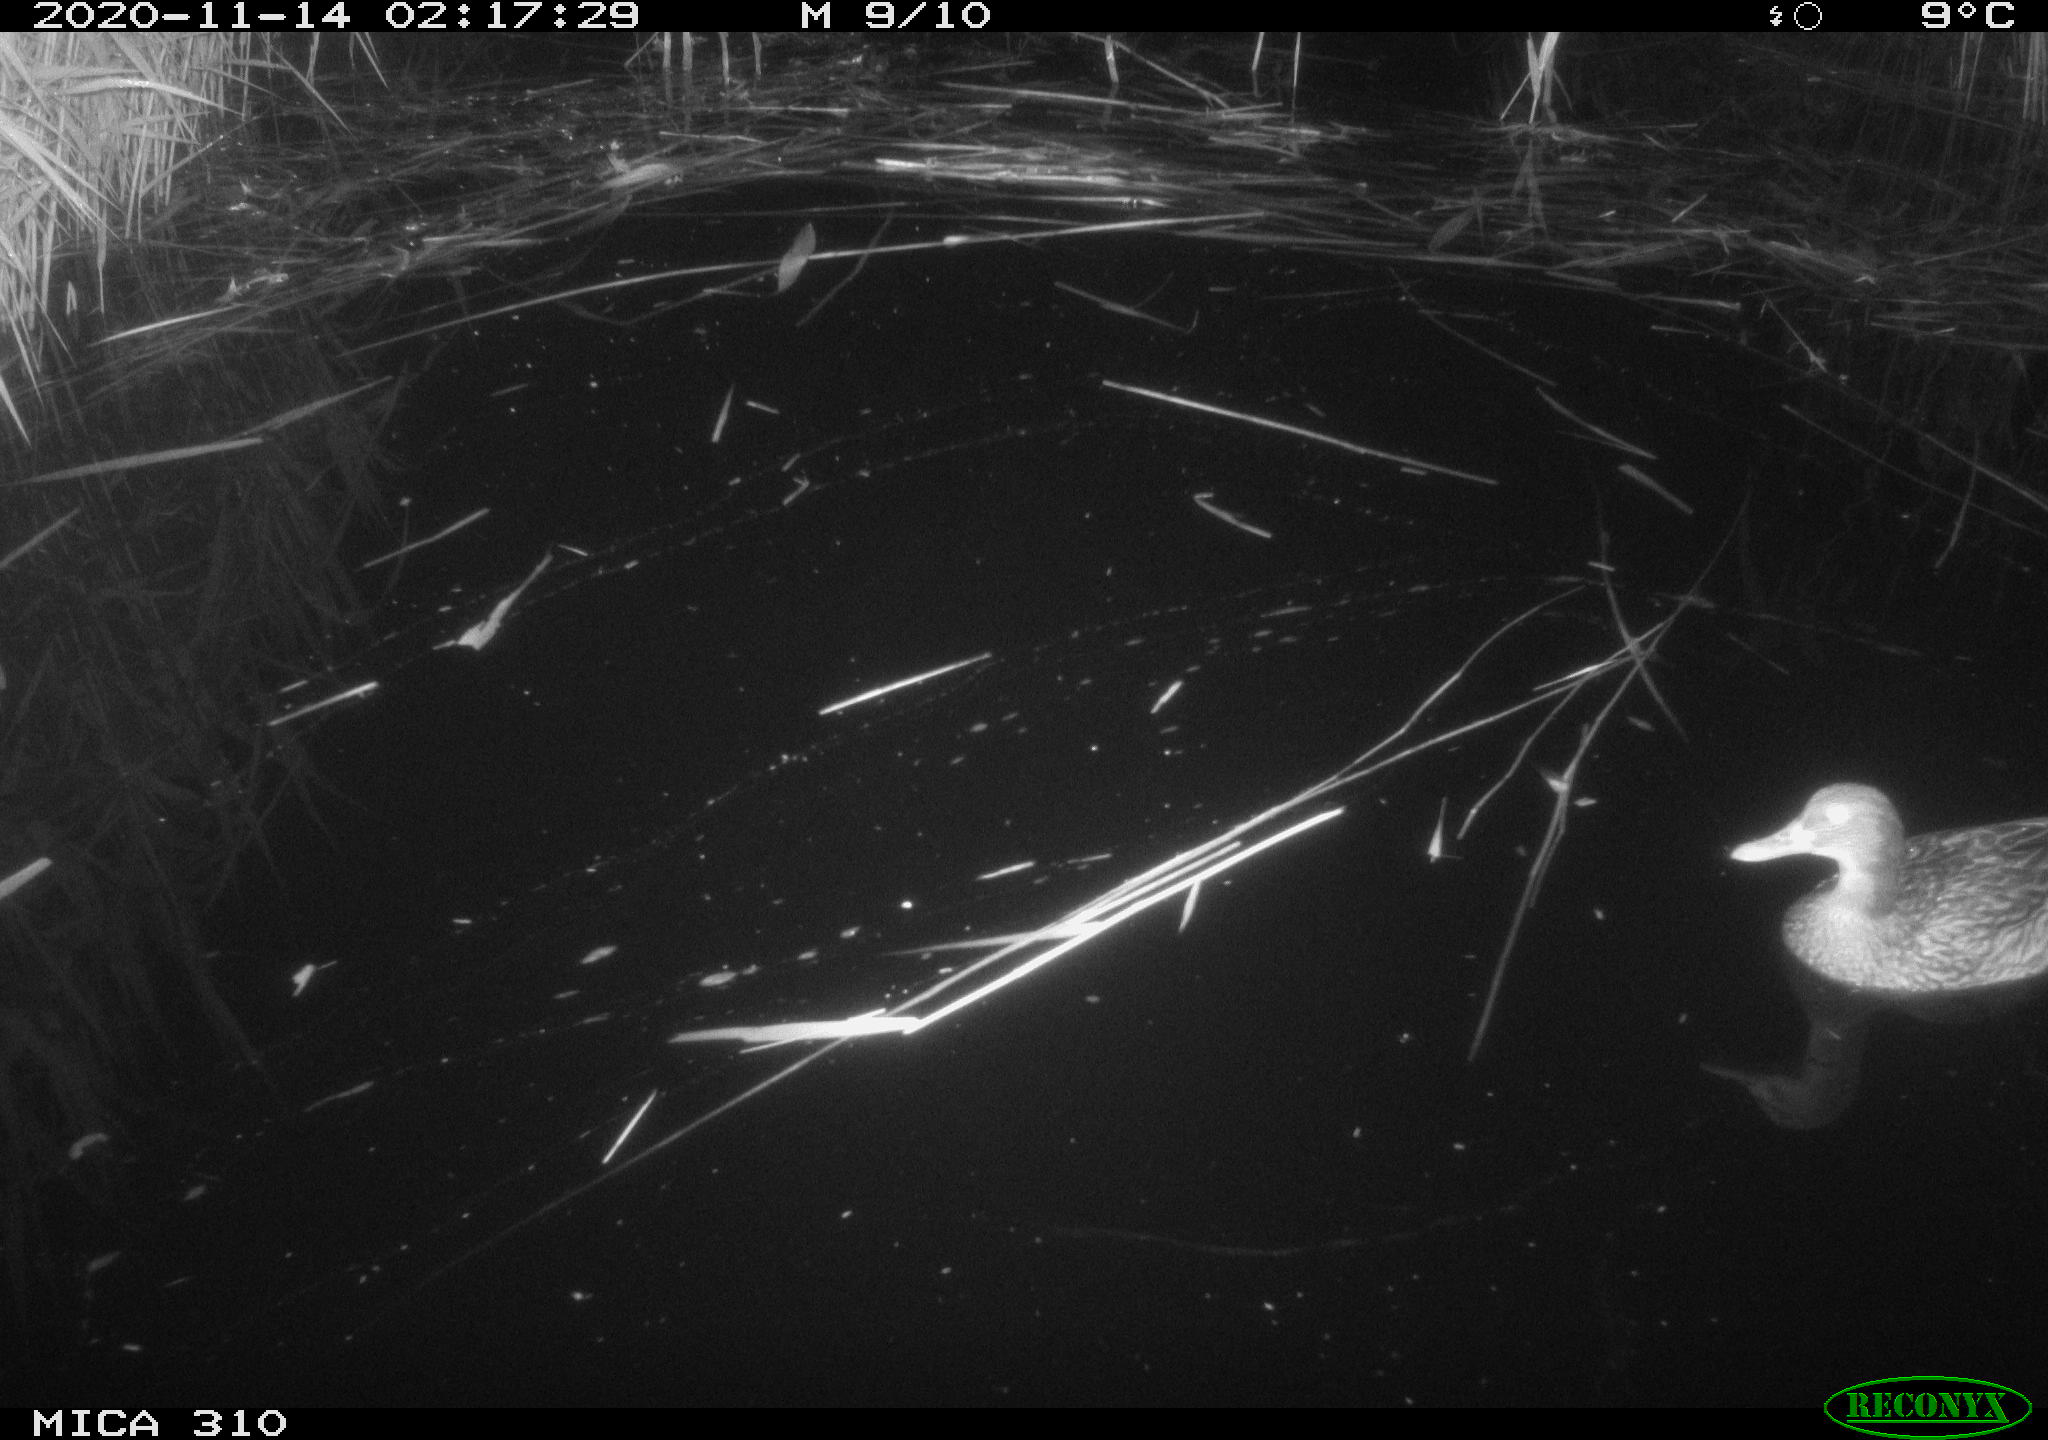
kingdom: Animalia
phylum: Chordata
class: Aves
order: Anseriformes
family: Anatidae
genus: Anas
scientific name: Anas platyrhynchos
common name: Mallard
